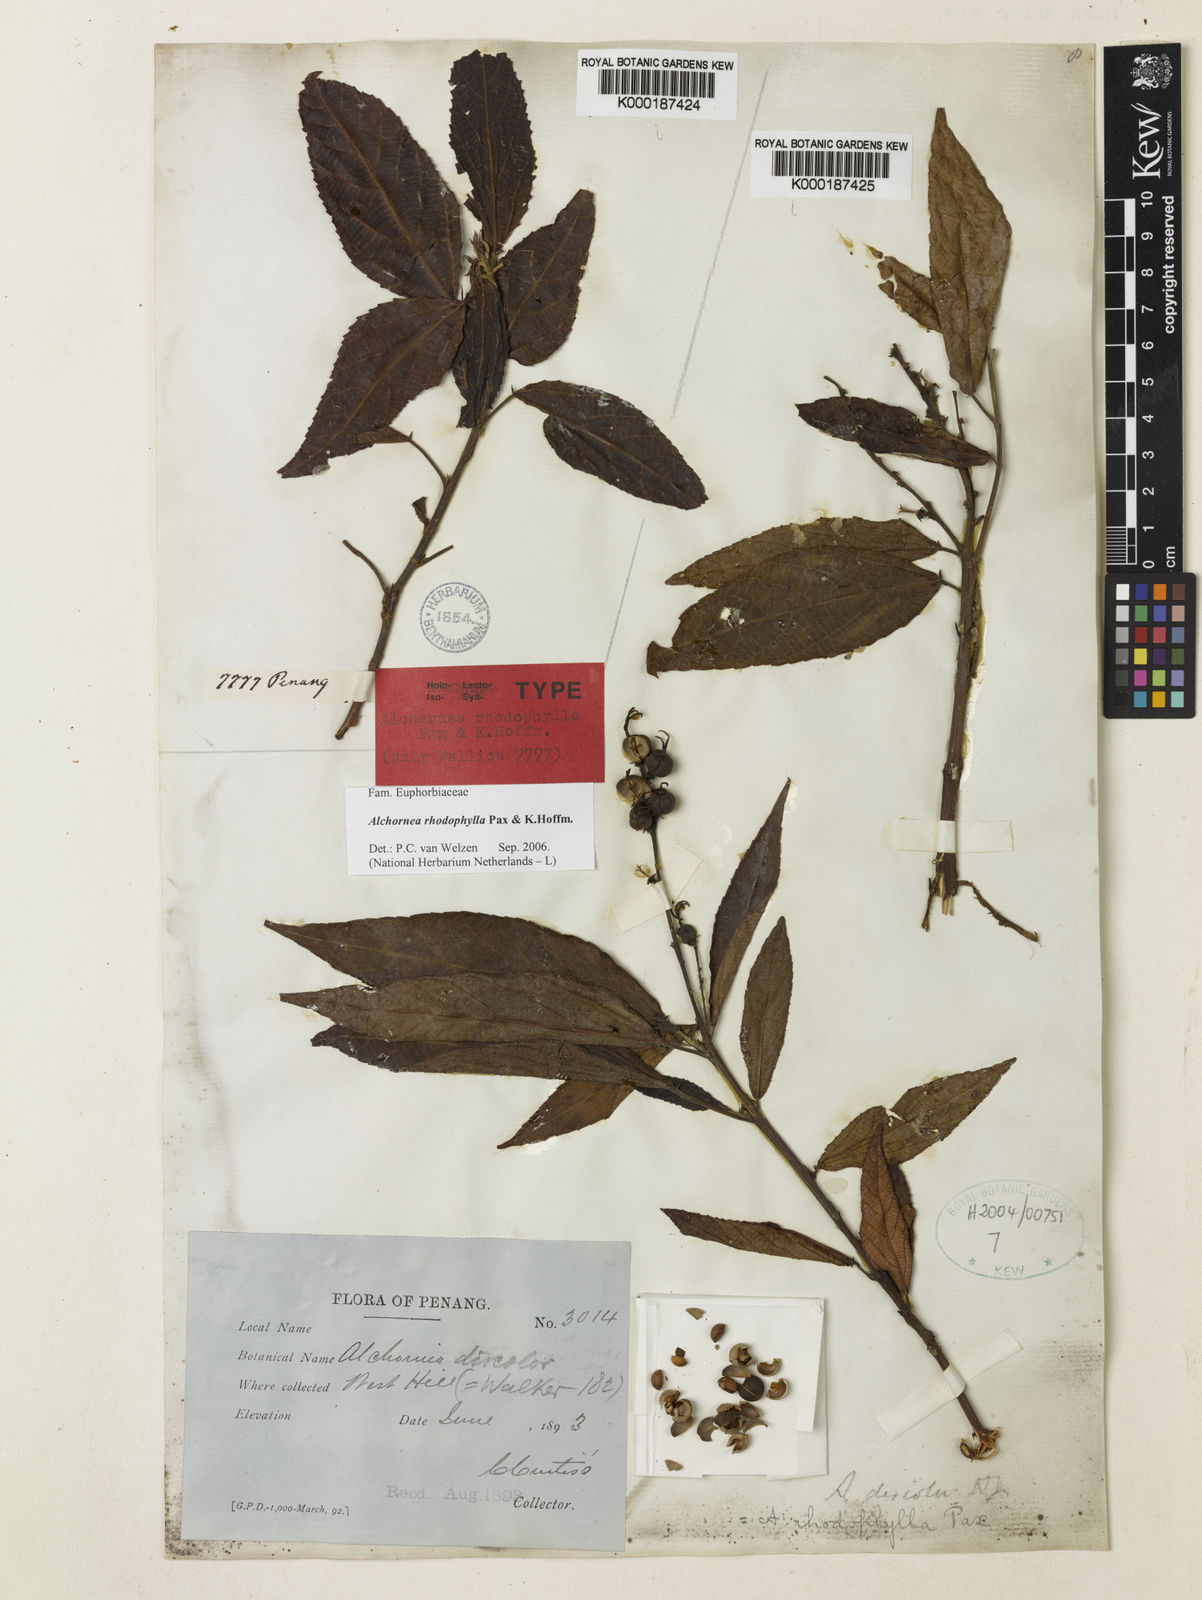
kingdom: Plantae
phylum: Tracheophyta
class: Magnoliopsida
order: Malpighiales
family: Euphorbiaceae
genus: Alchornea
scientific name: Alchornea rhodophylla
